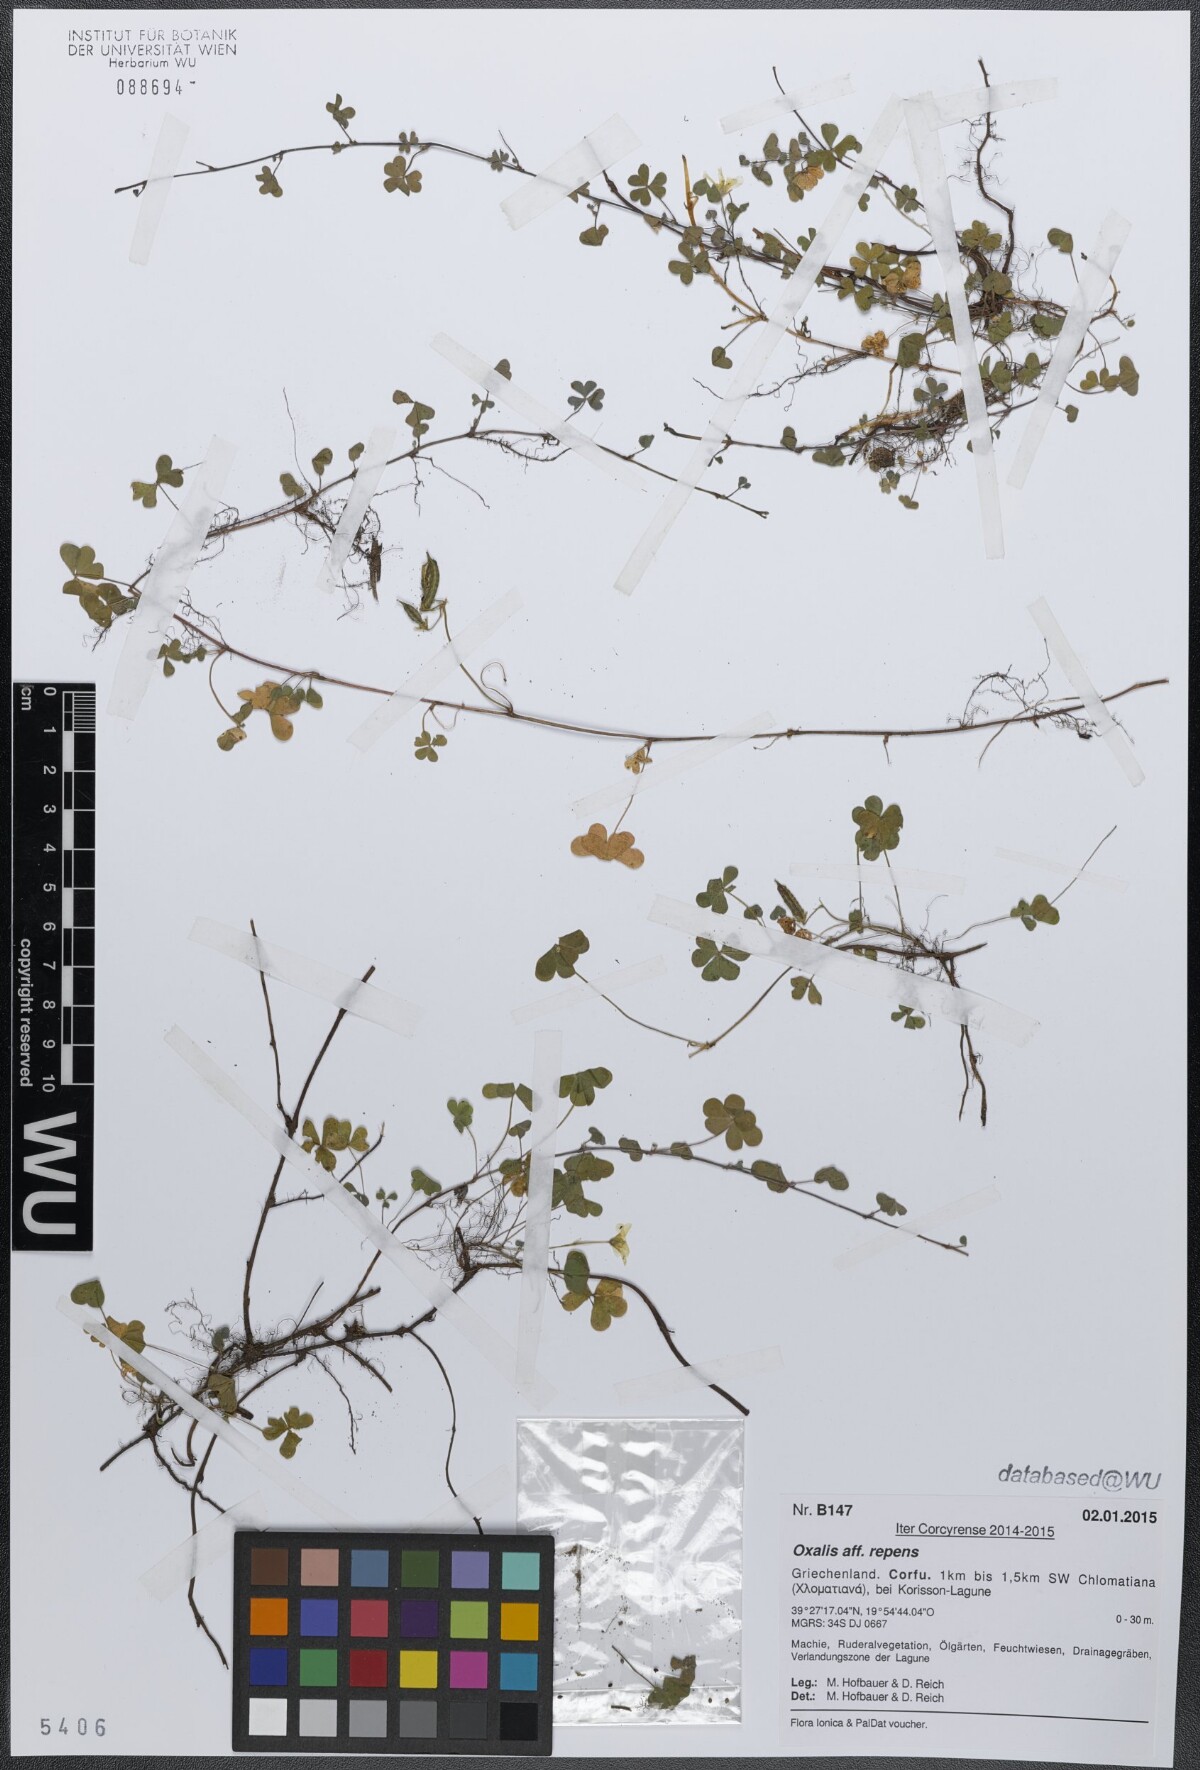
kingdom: Plantae
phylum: Tracheophyta
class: Magnoliopsida
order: Oxalidales
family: Oxalidaceae
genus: Oxalis
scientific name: Oxalis corniculata
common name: Procumbent yellow-sorrel
